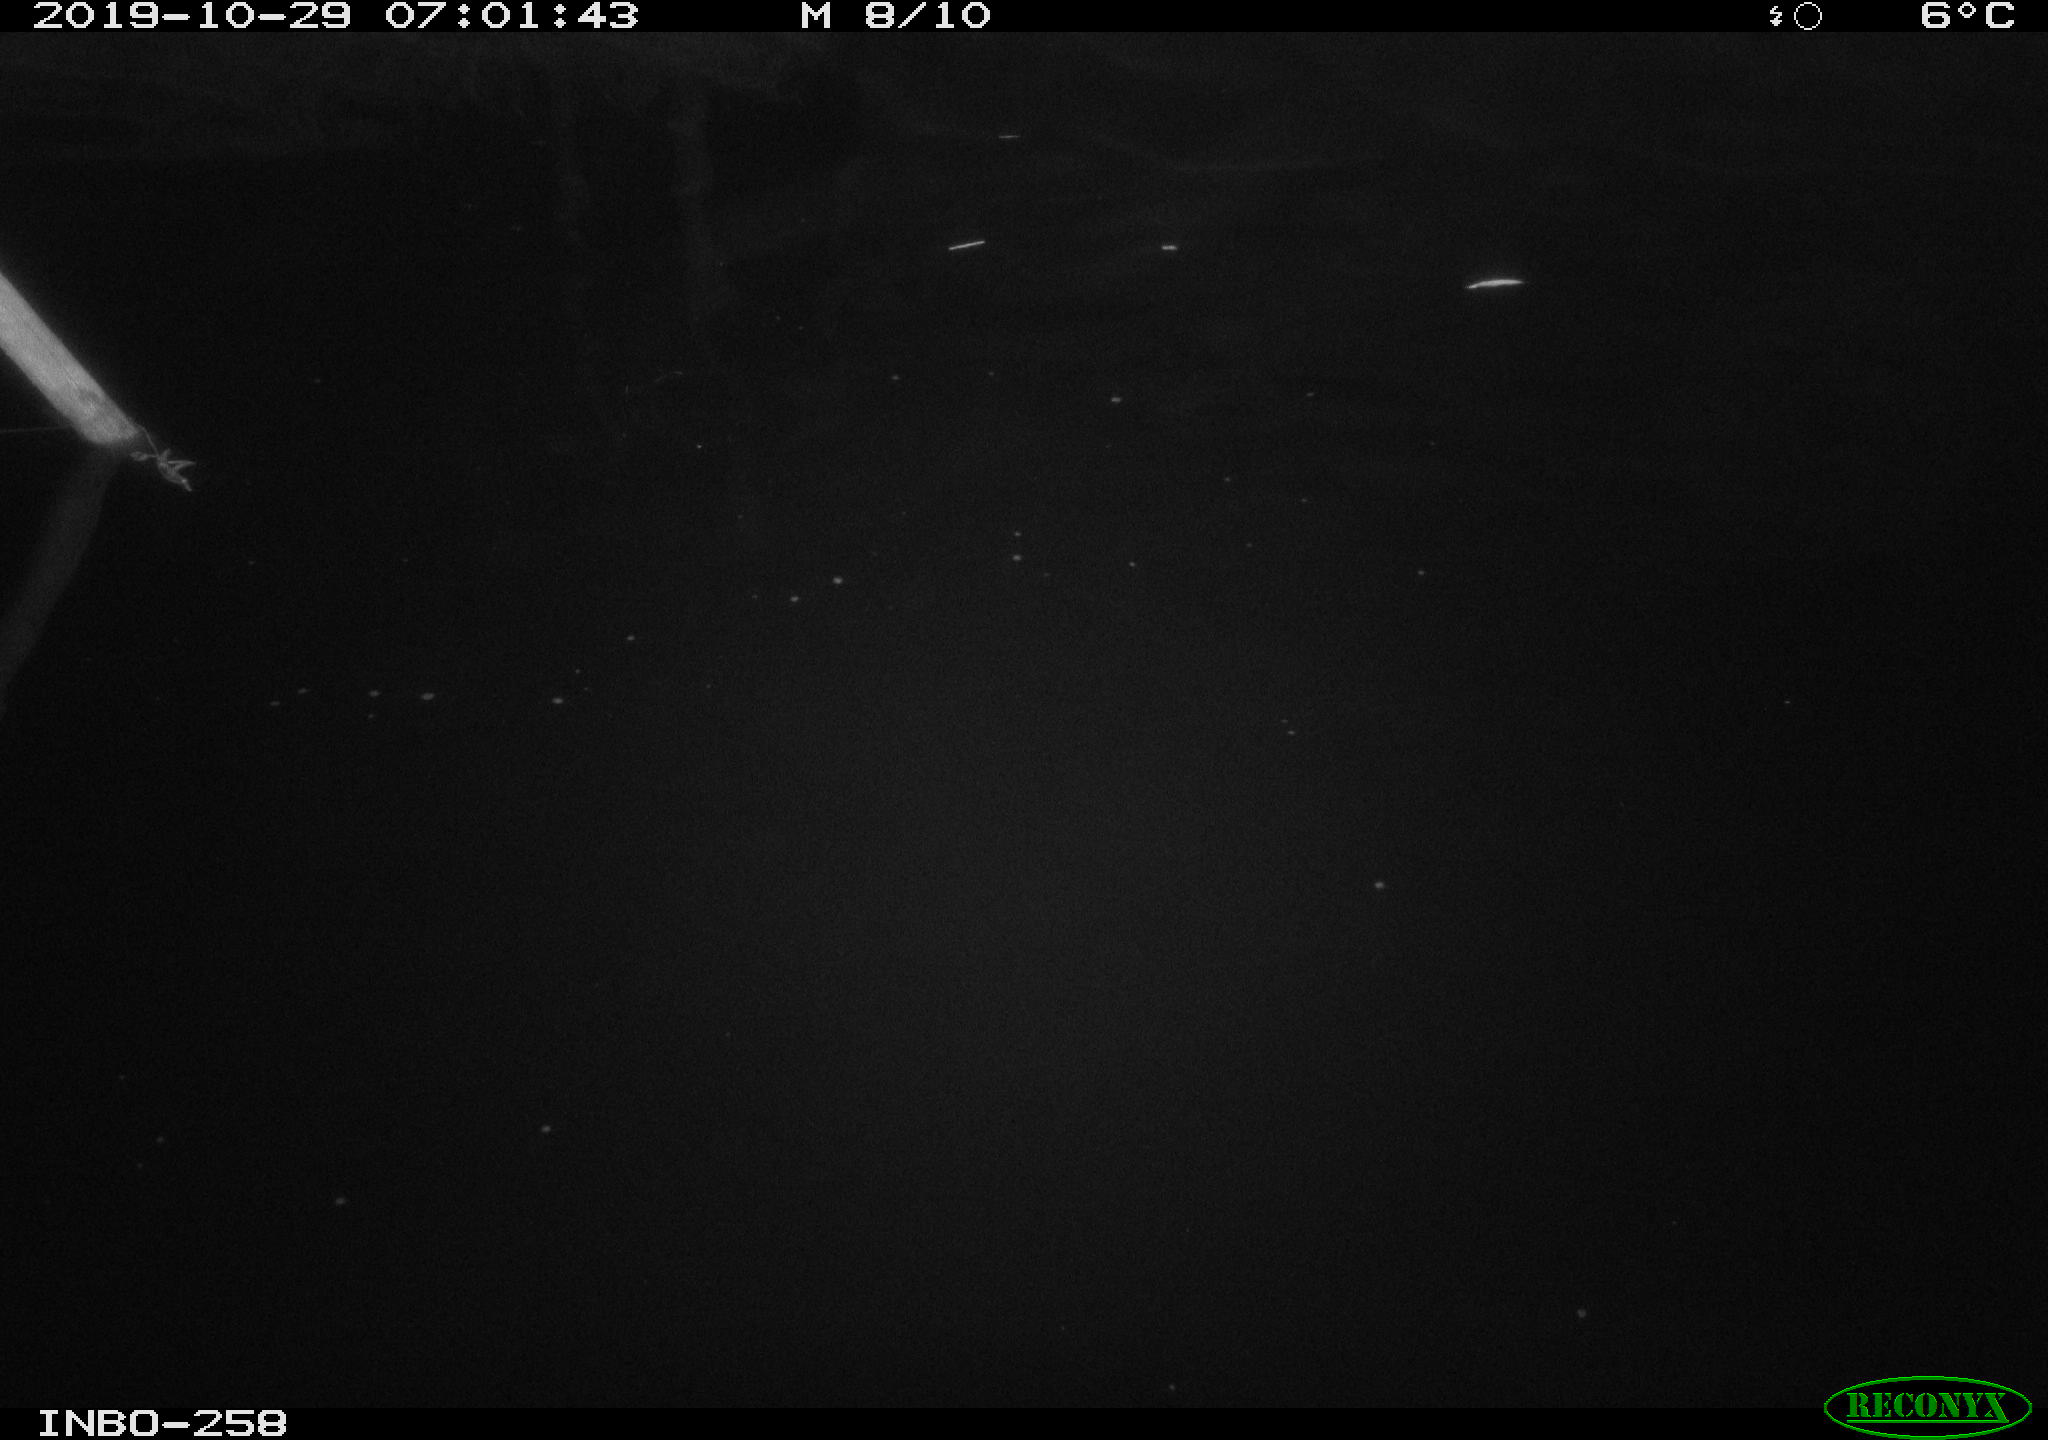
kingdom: Animalia
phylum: Chordata
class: Aves
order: Anseriformes
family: Anatidae
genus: Anas
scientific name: Anas platyrhynchos
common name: Mallard
